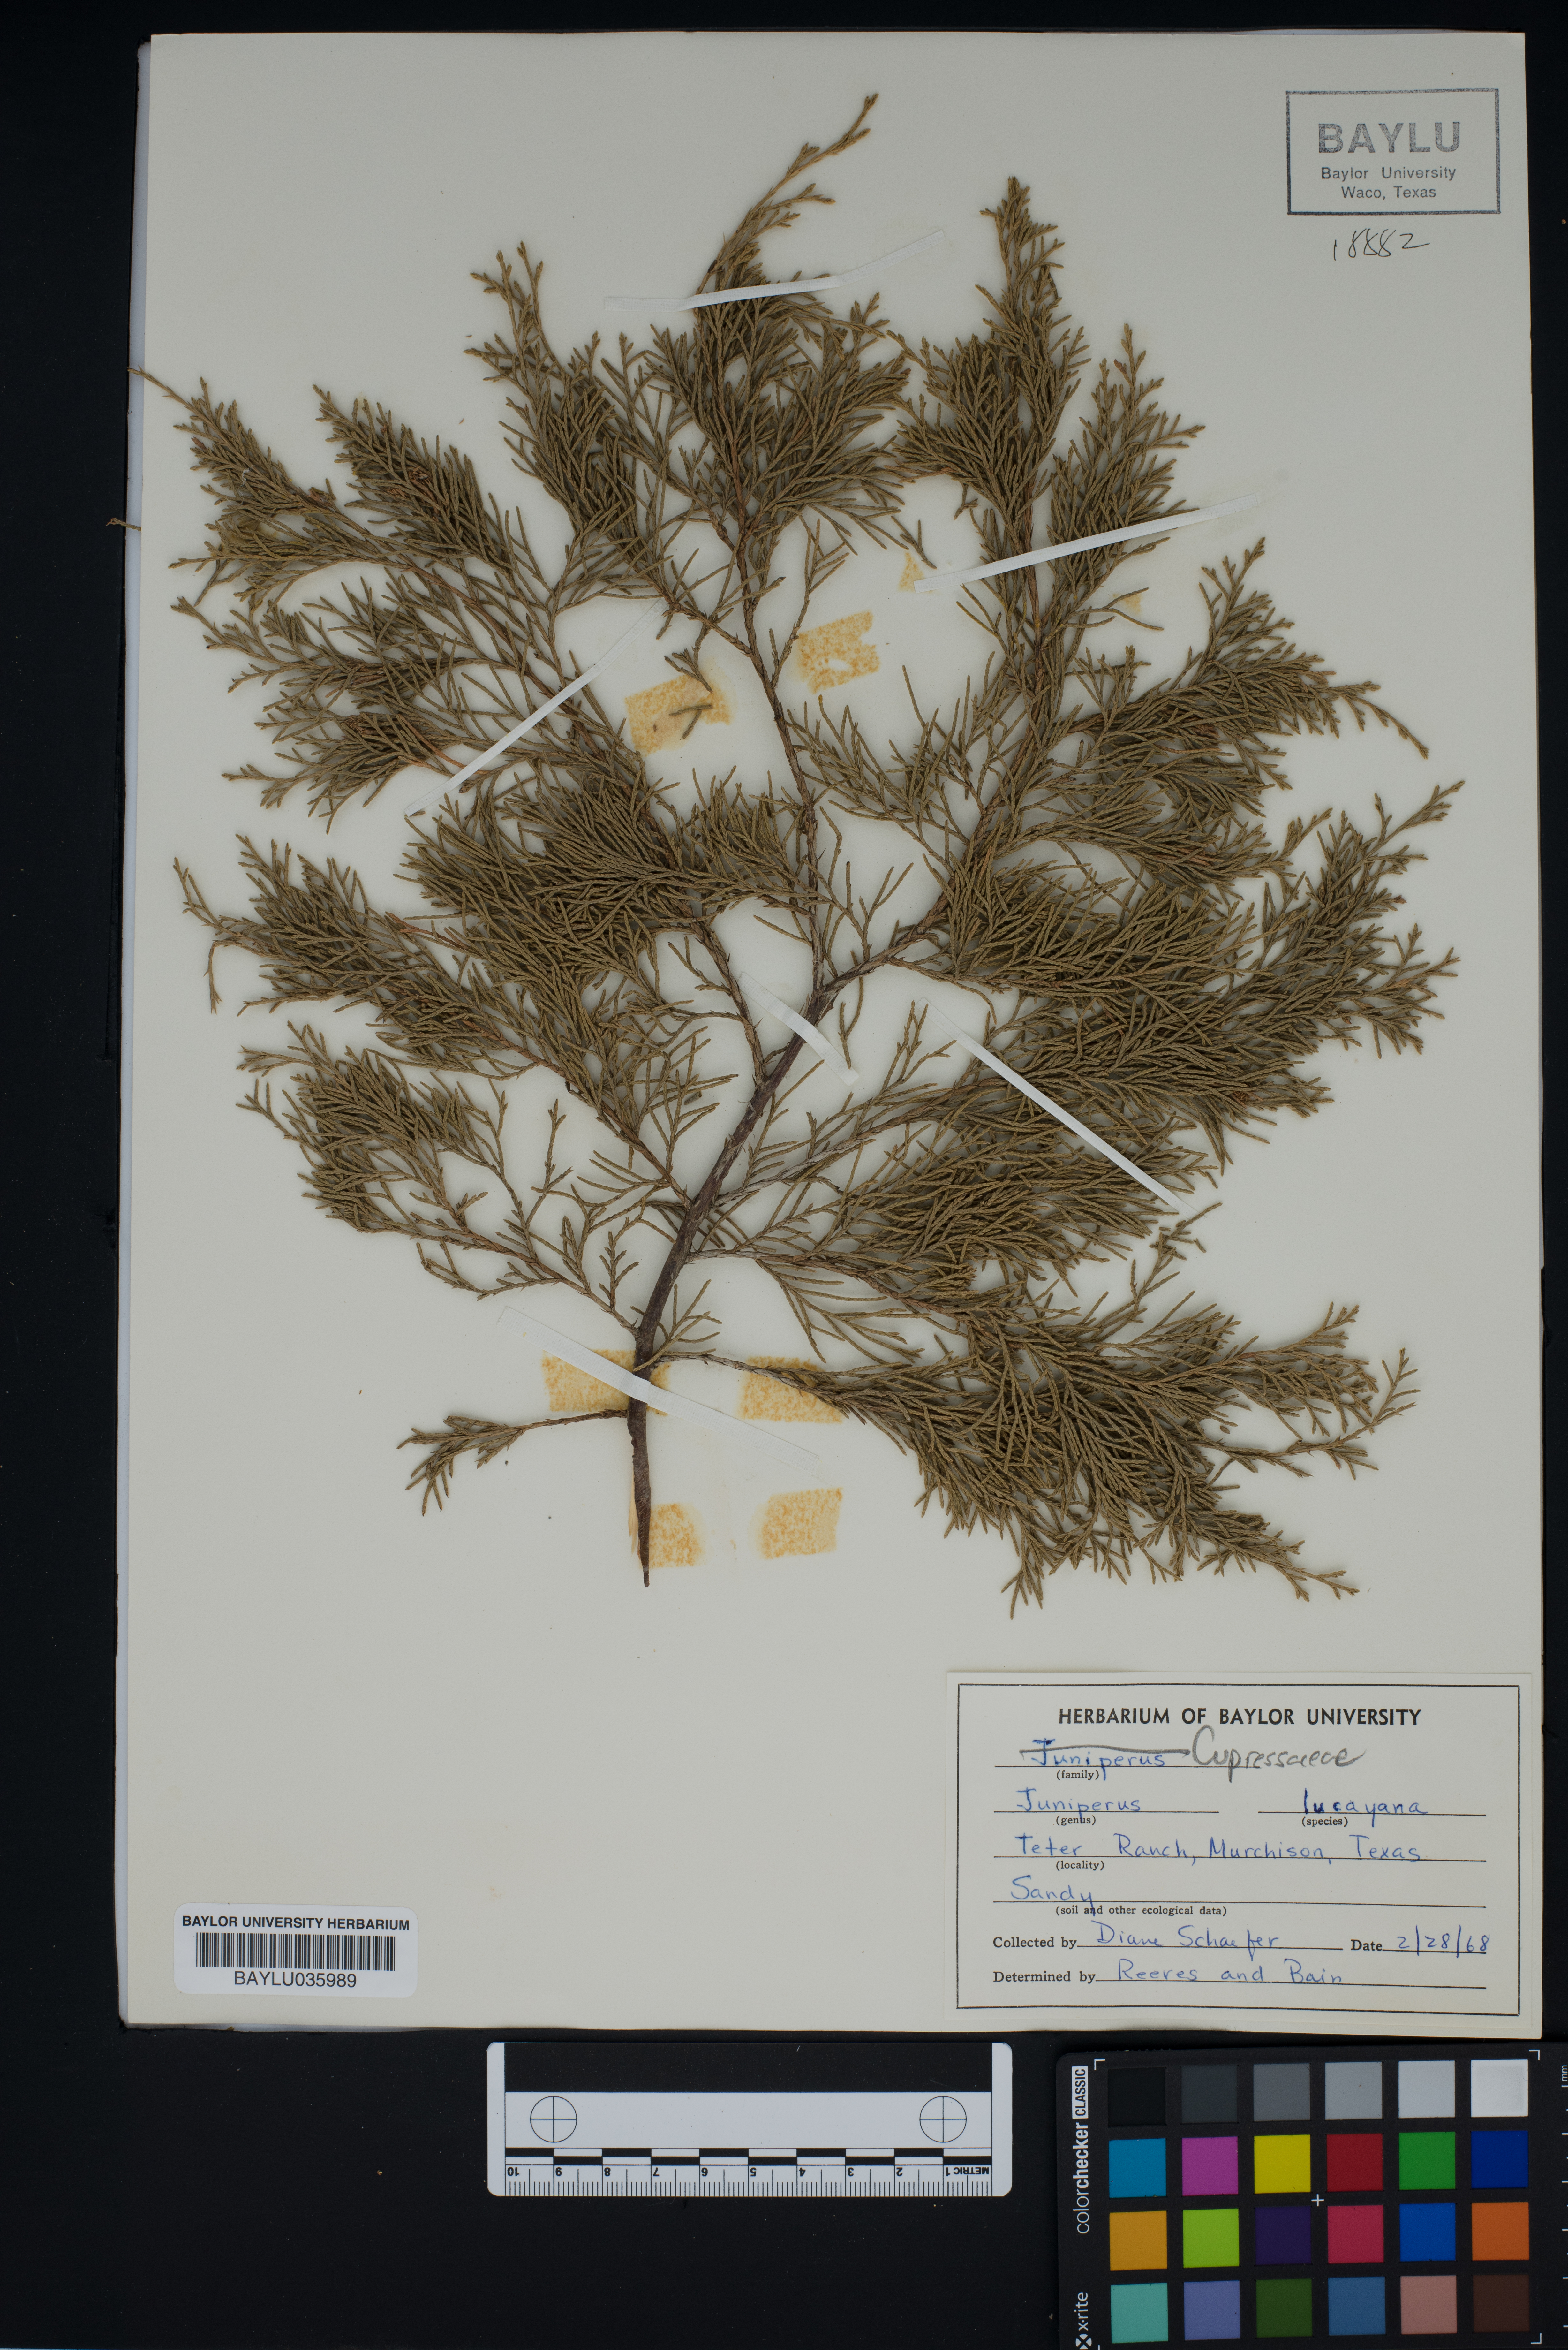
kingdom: Plantae
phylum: Tracheophyta
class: Pinopsida
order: Pinales
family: Cupressaceae
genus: Juniperus
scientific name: Juniperus barbadensis
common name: West indies juniper
